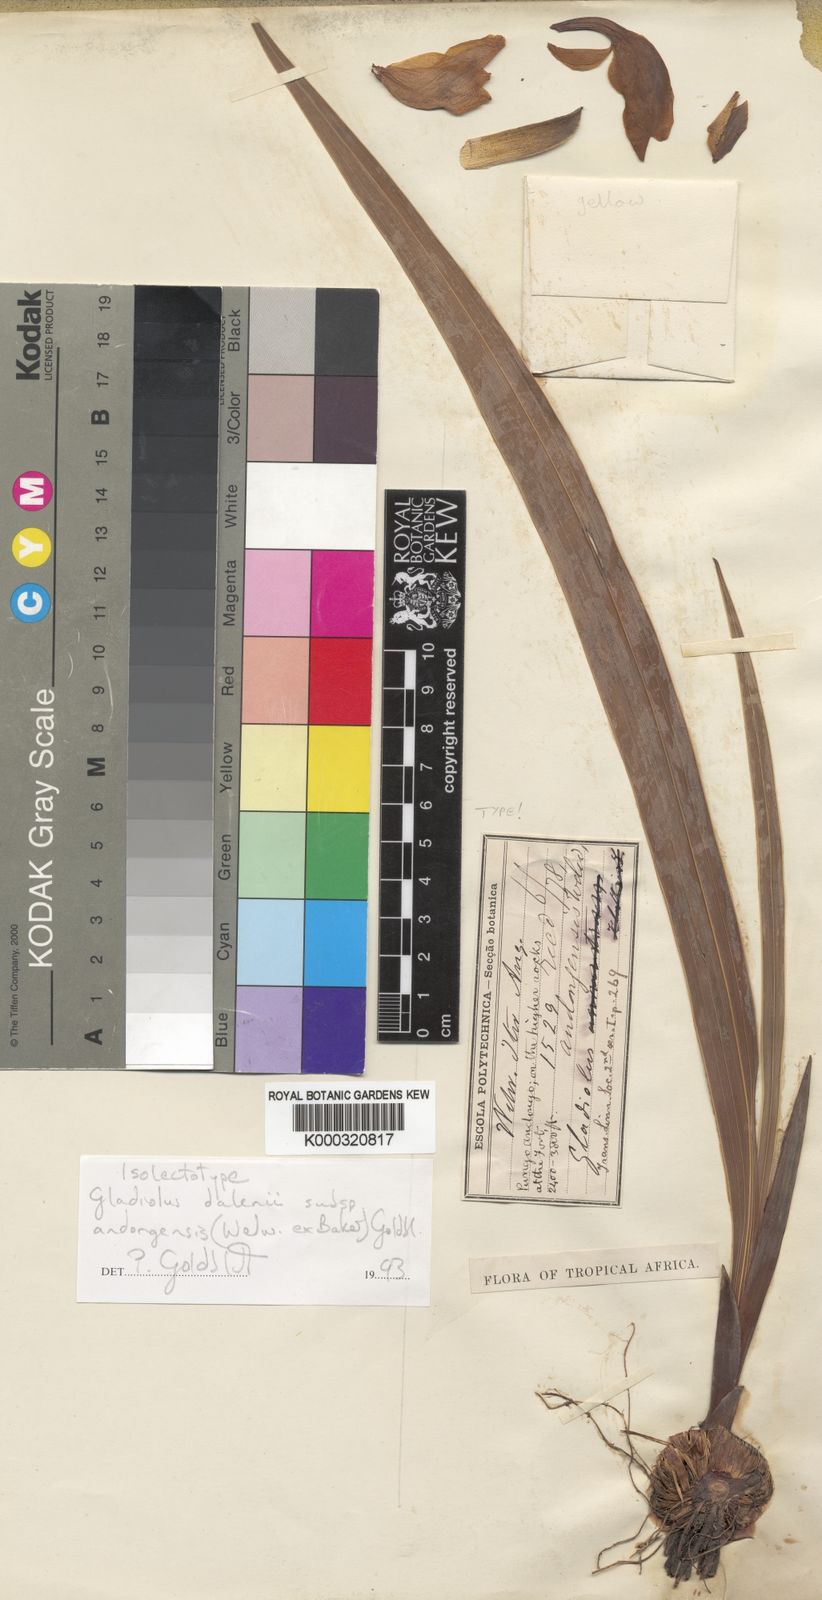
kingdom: Plantae
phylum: Tracheophyta
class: Liliopsida
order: Asparagales
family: Iridaceae
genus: Gladiolus
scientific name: Gladiolus dalenii
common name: Cornflag
